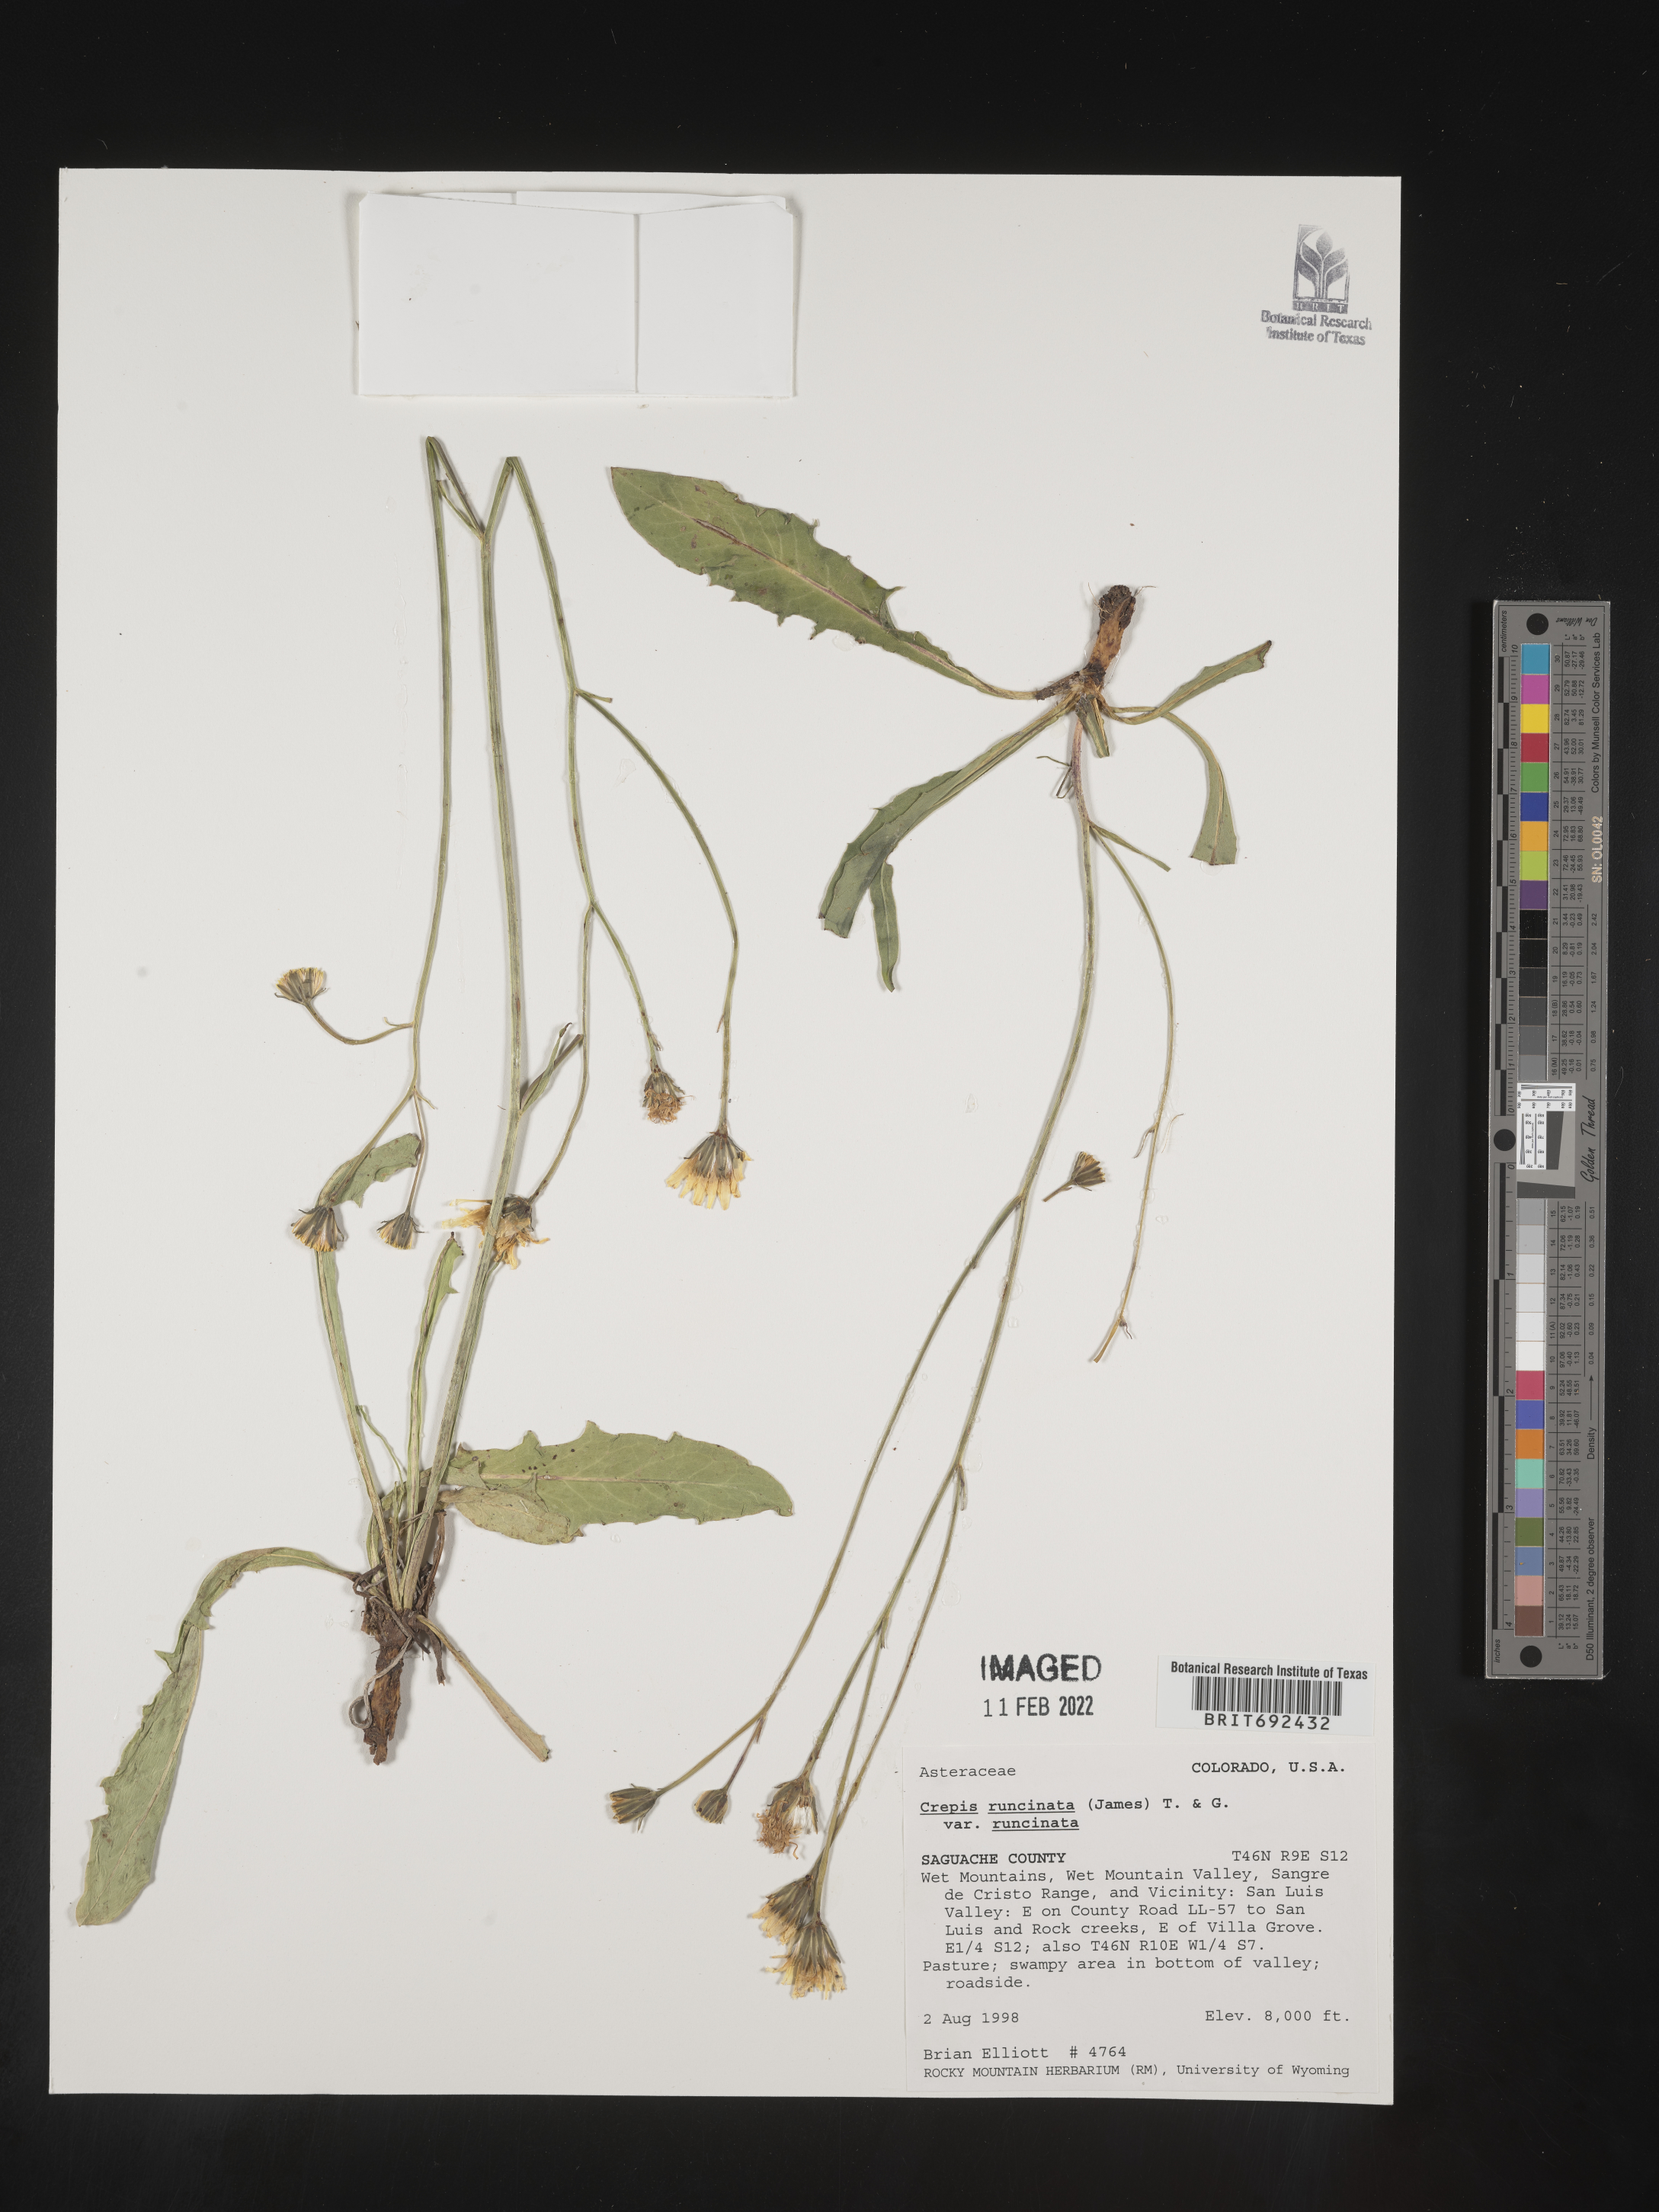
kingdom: Plantae
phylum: Tracheophyta
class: Magnoliopsida
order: Asterales
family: Asteraceae
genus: Crepis
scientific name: Crepis
